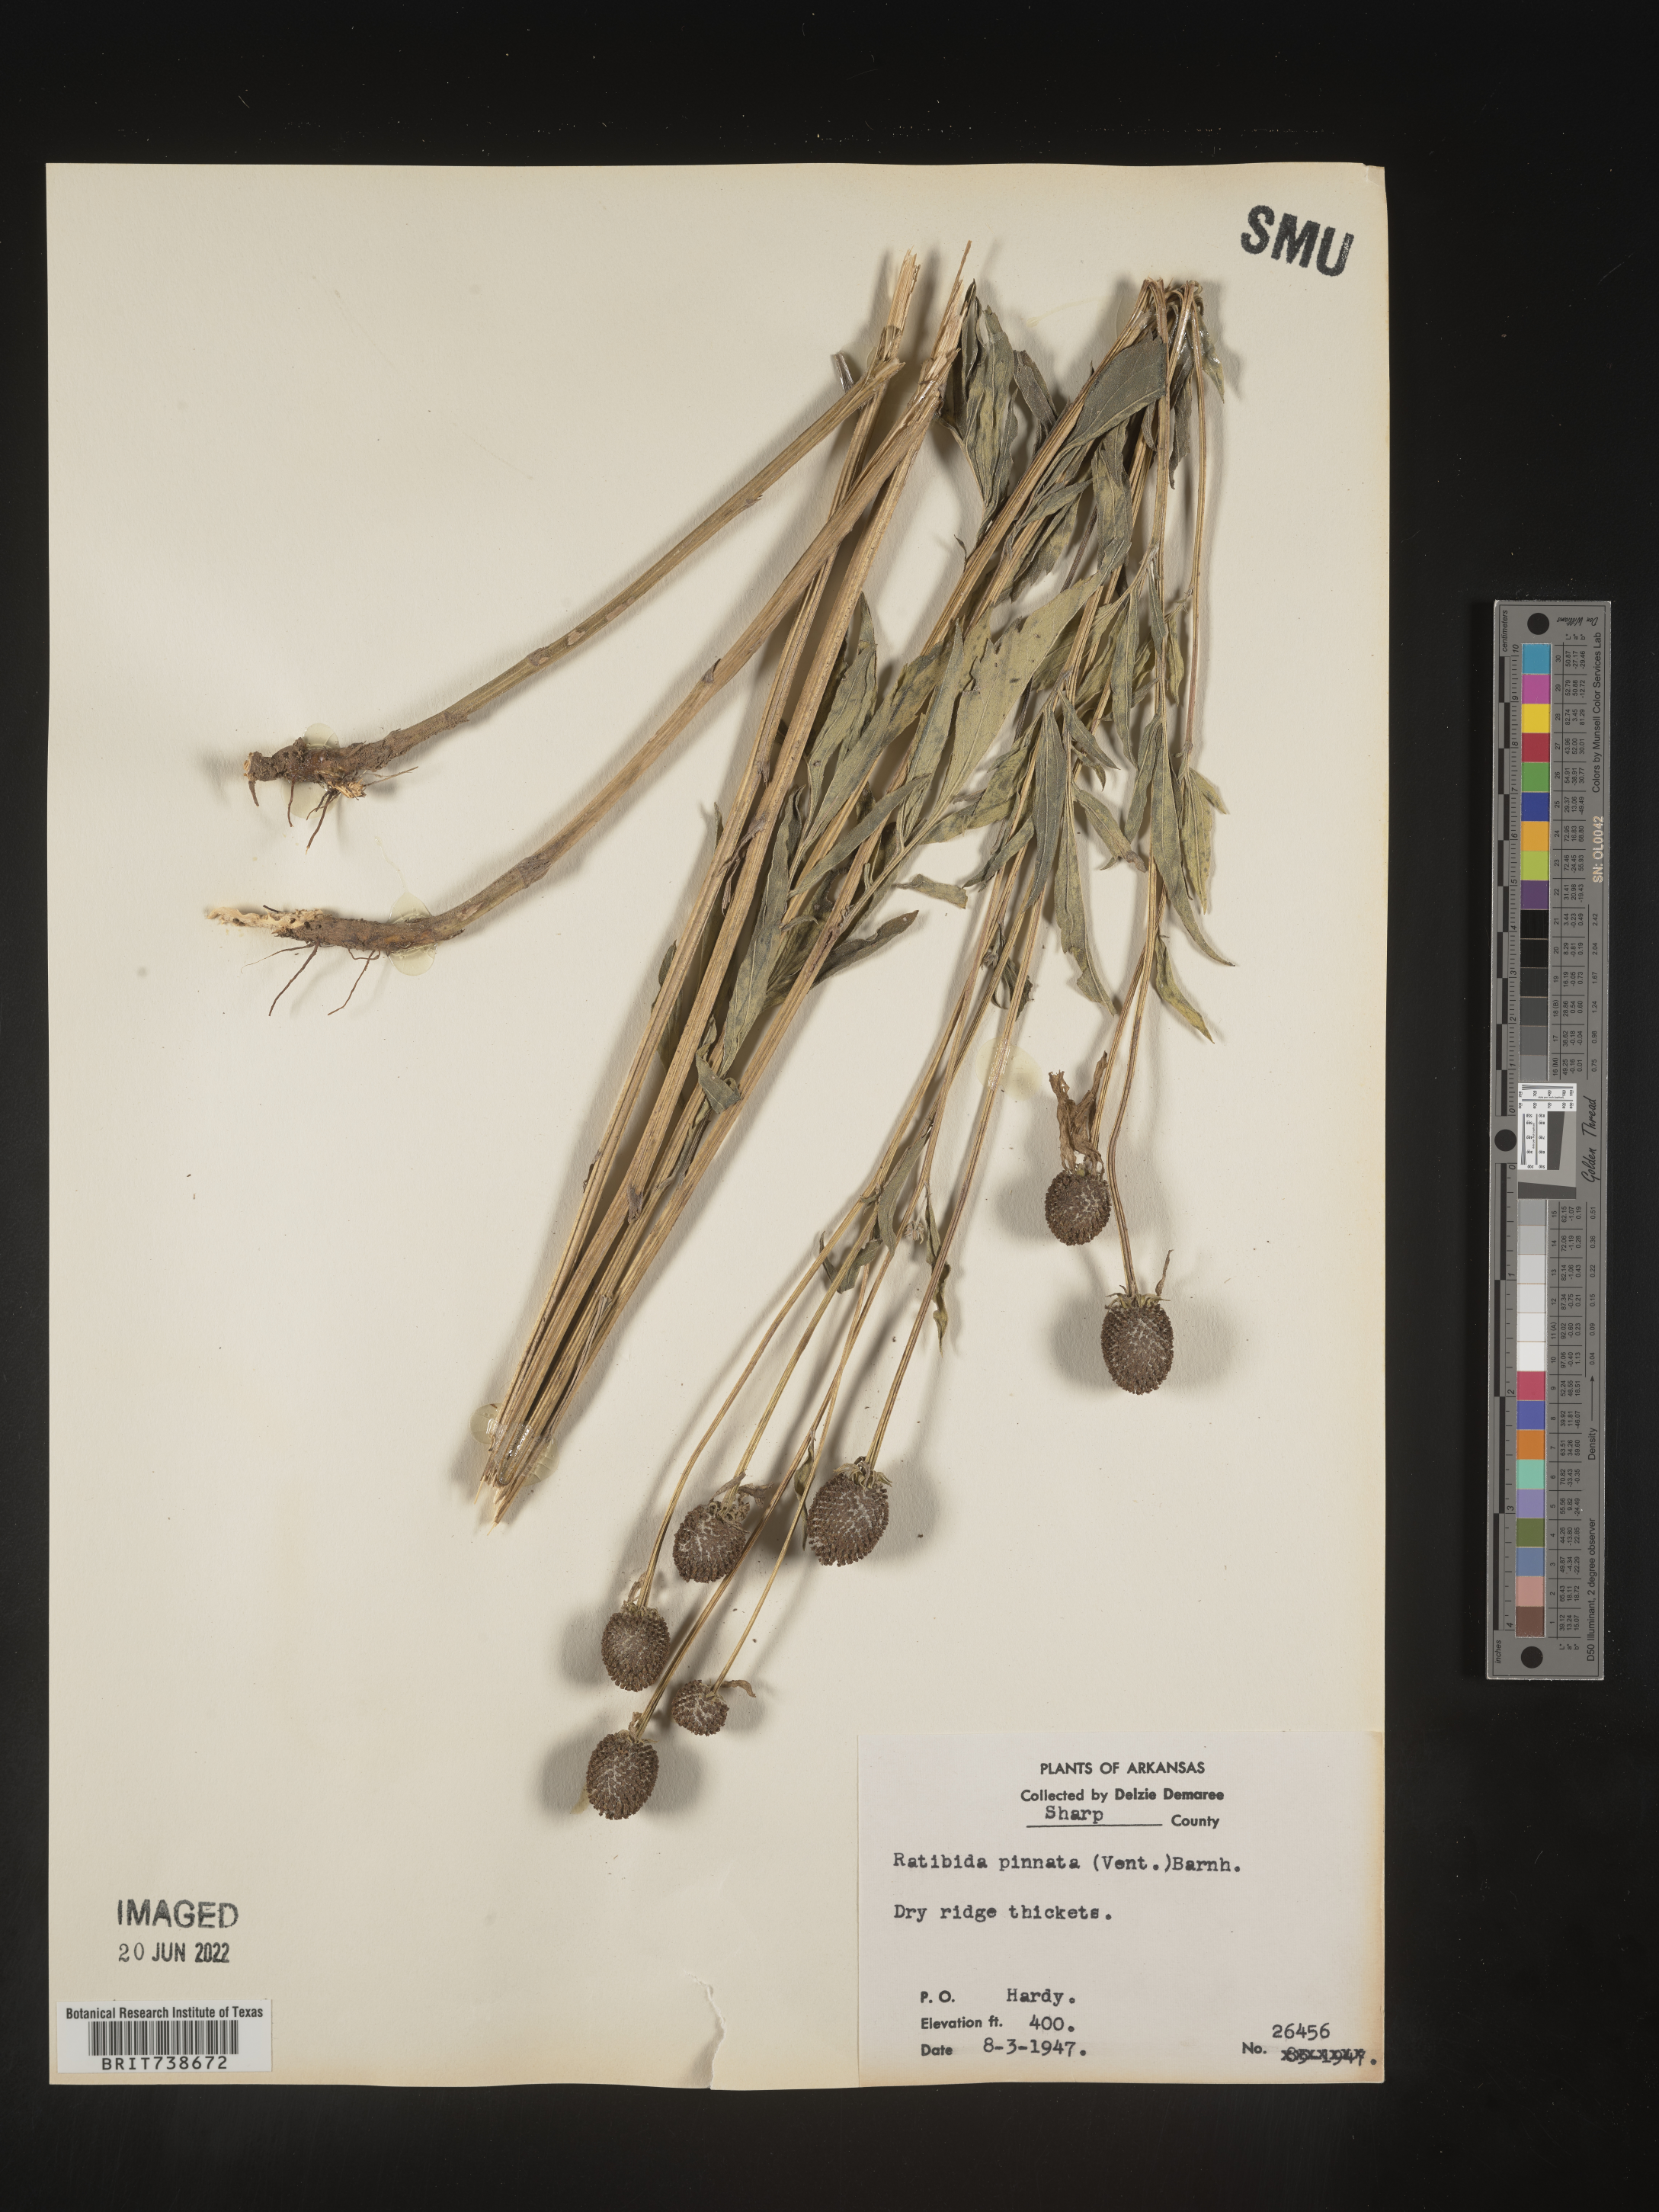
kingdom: Plantae
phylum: Tracheophyta
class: Magnoliopsida
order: Asterales
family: Asteraceae
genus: Ratibida
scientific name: Ratibida pinnata
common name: Drooping prairie-coneflower
